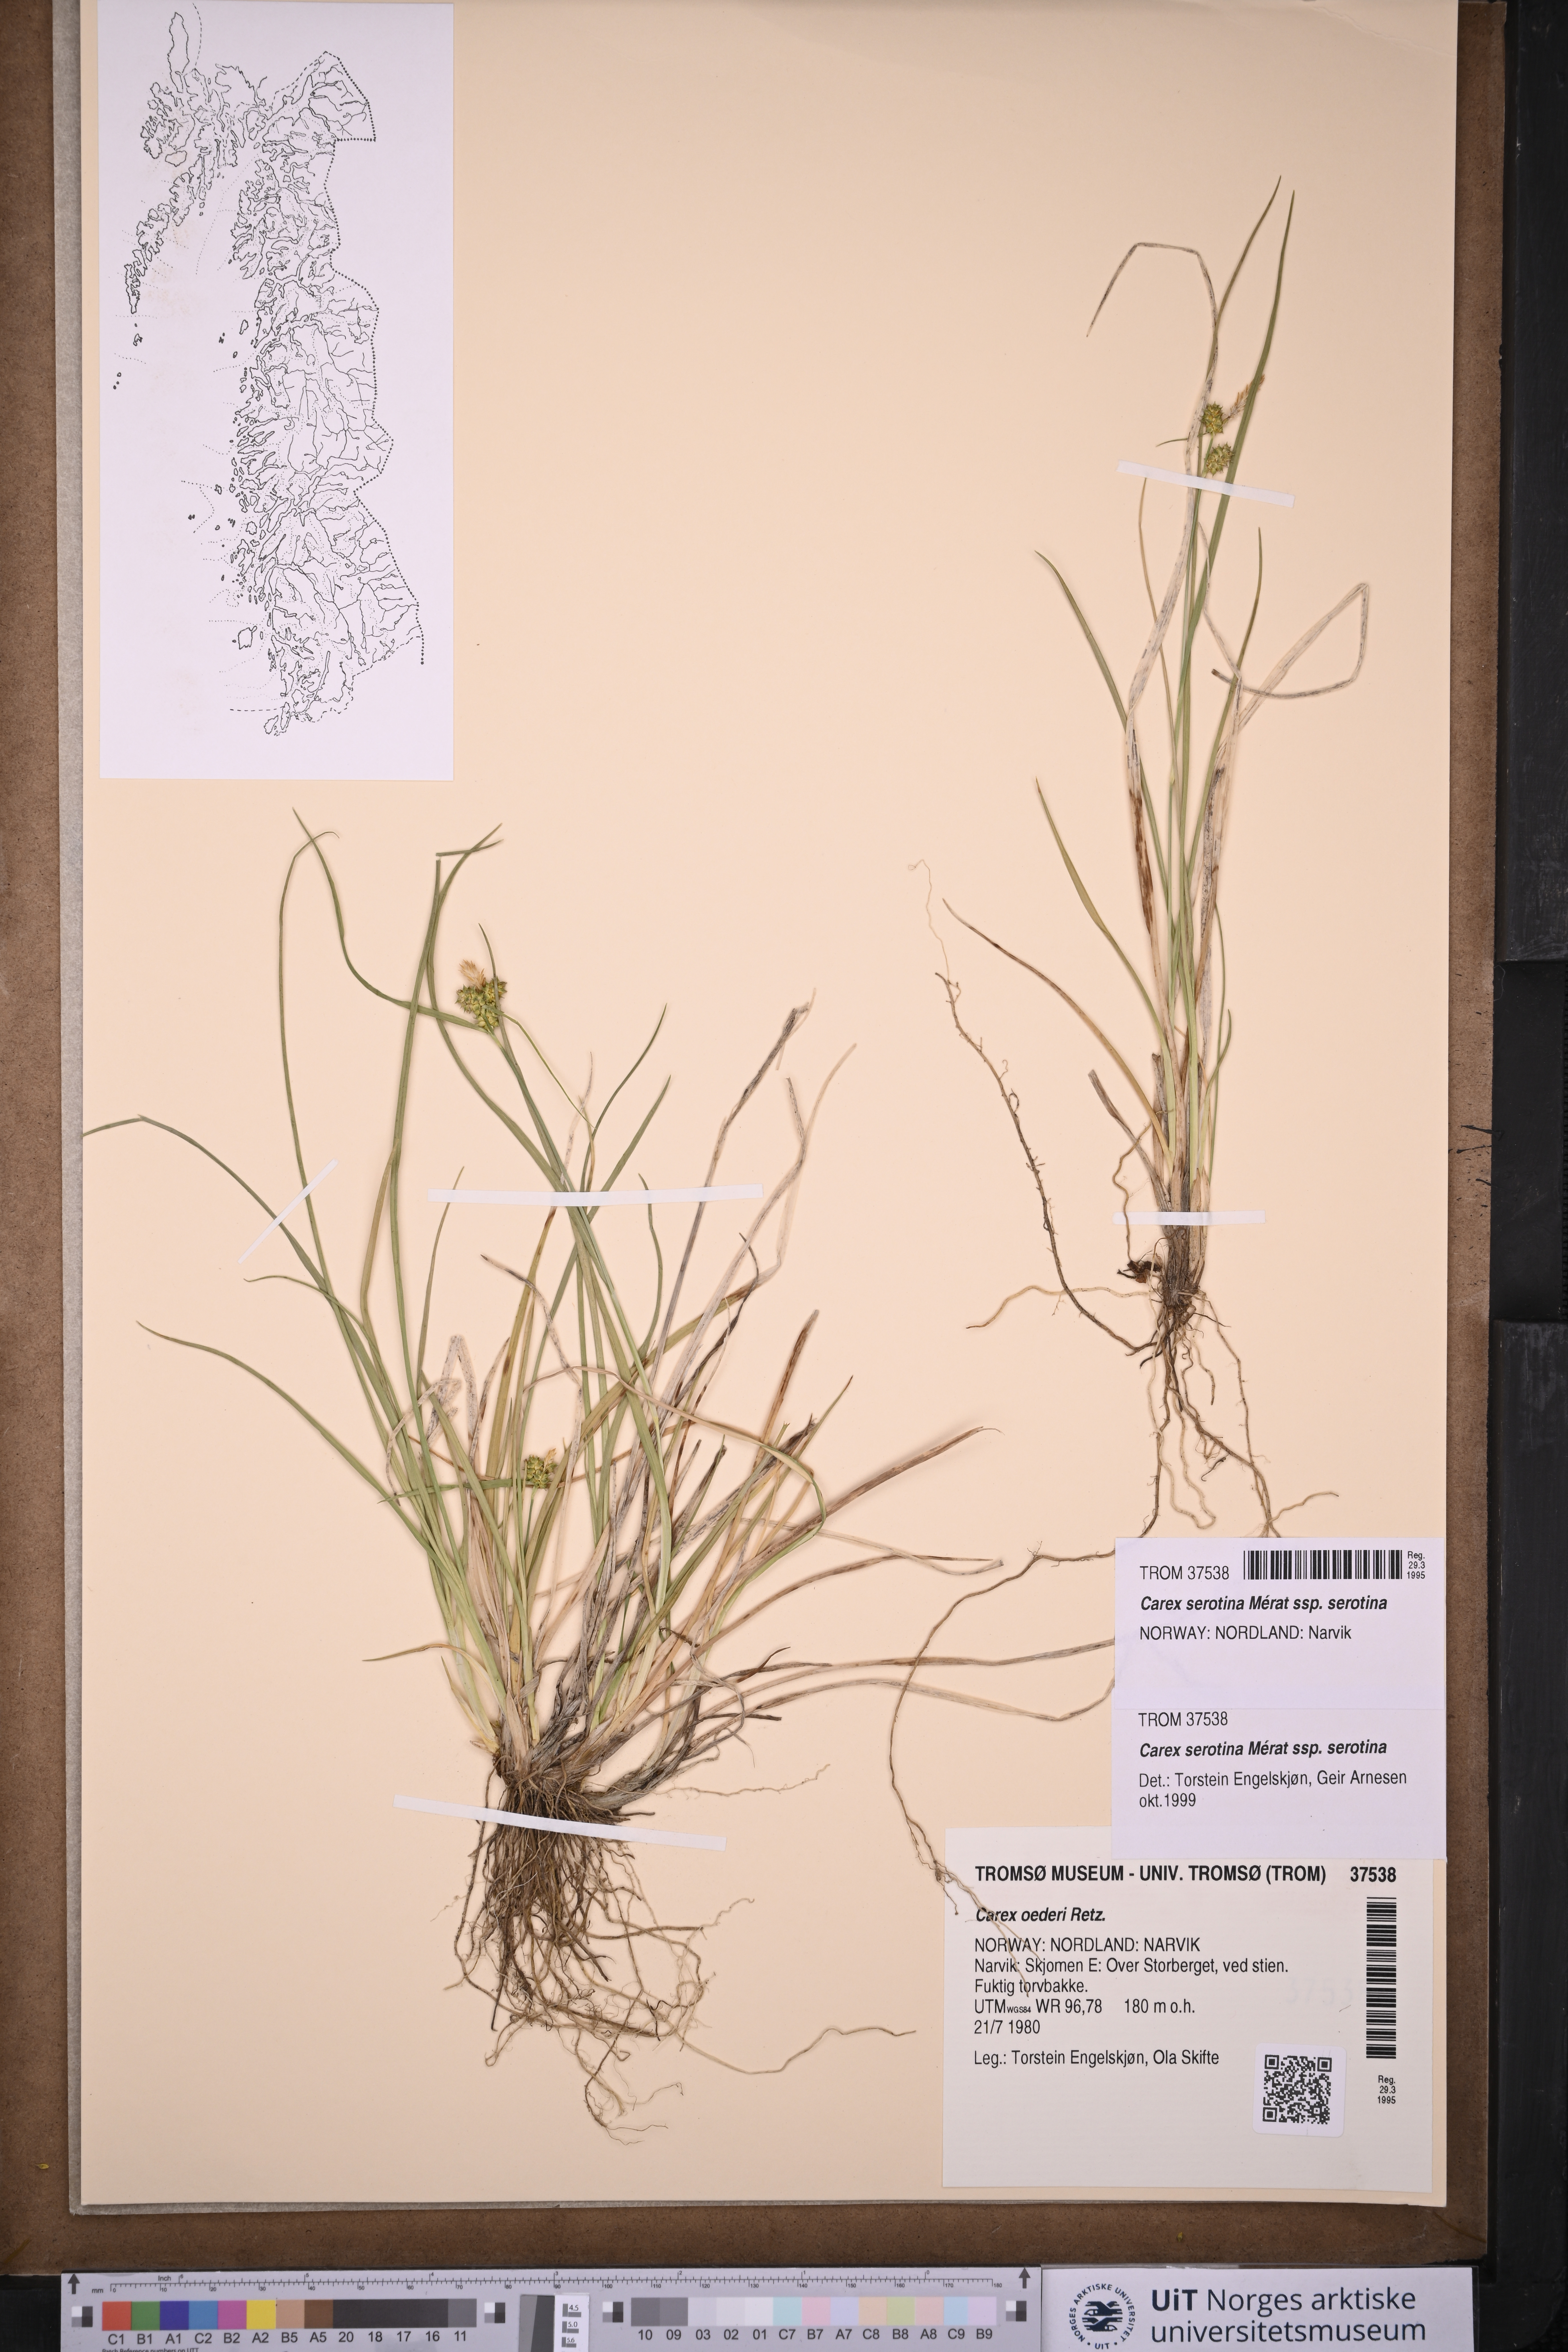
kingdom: Plantae
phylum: Tracheophyta
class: Liliopsida
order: Poales
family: Cyperaceae
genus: Carex
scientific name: Carex oederi
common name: Common & small-fruited yellow-sedge
